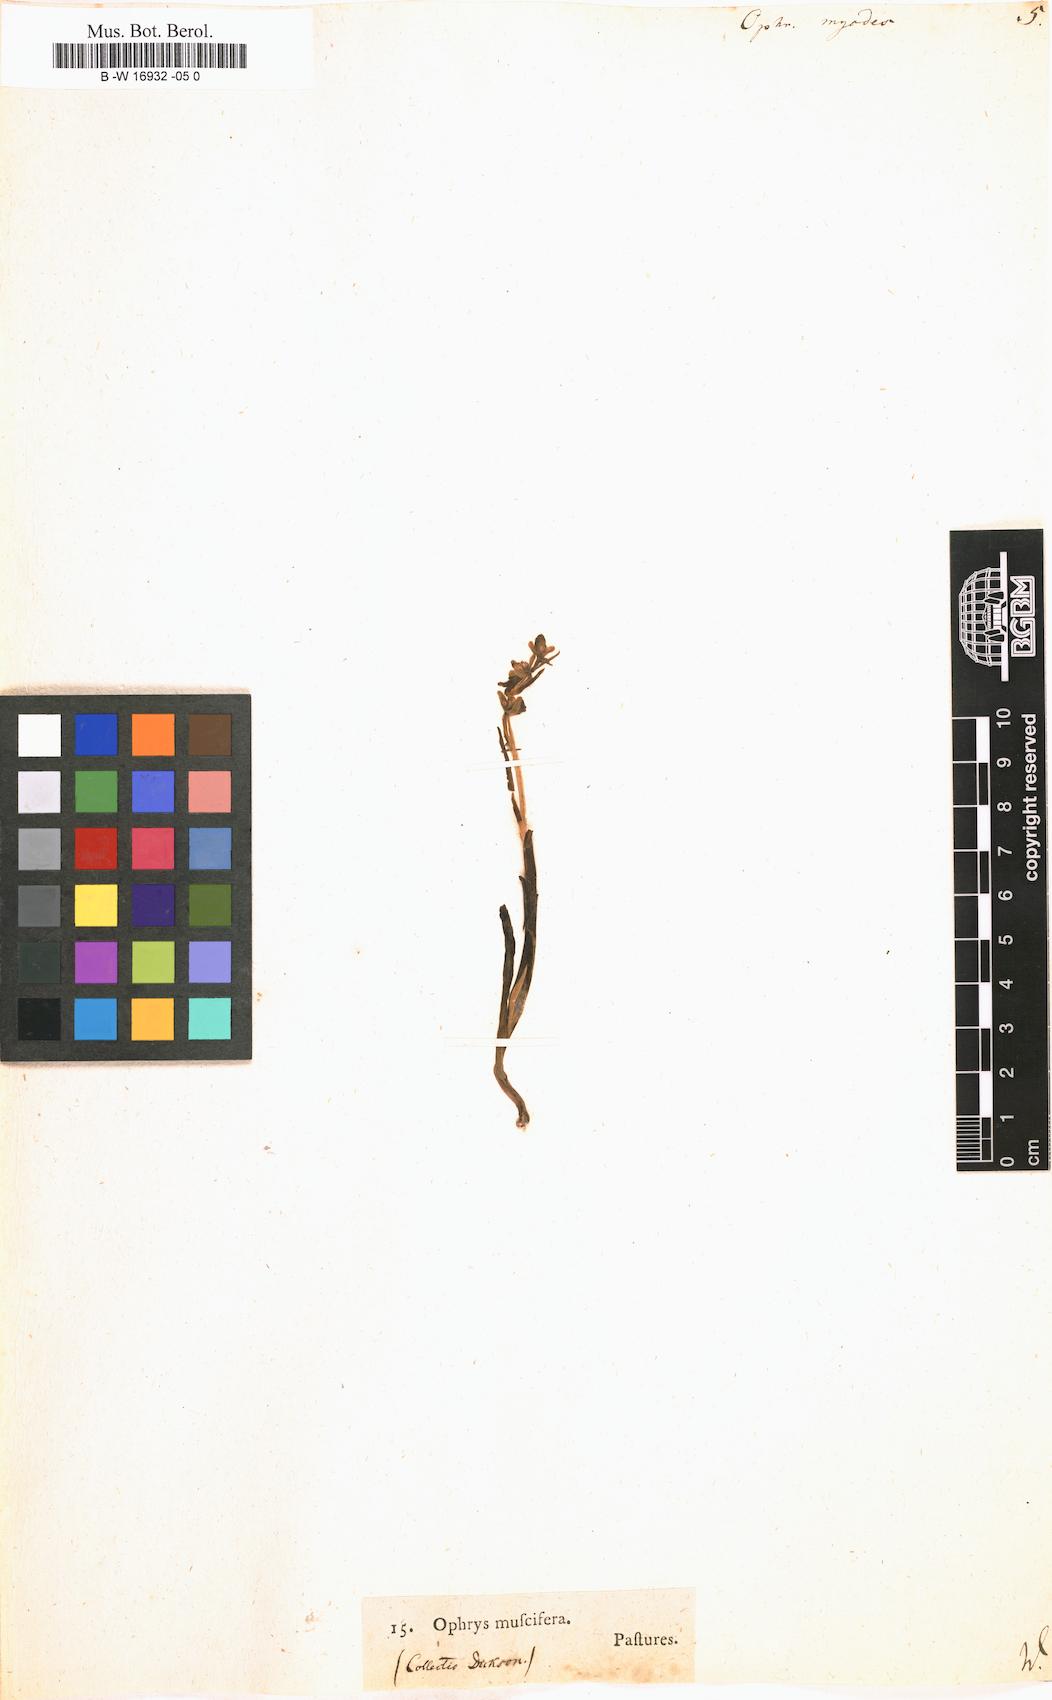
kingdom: Plantae
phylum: Tracheophyta
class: Liliopsida
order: Asparagales
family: Orchidaceae
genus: Ophrys
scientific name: Ophrys insectifera
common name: Fly orchid
